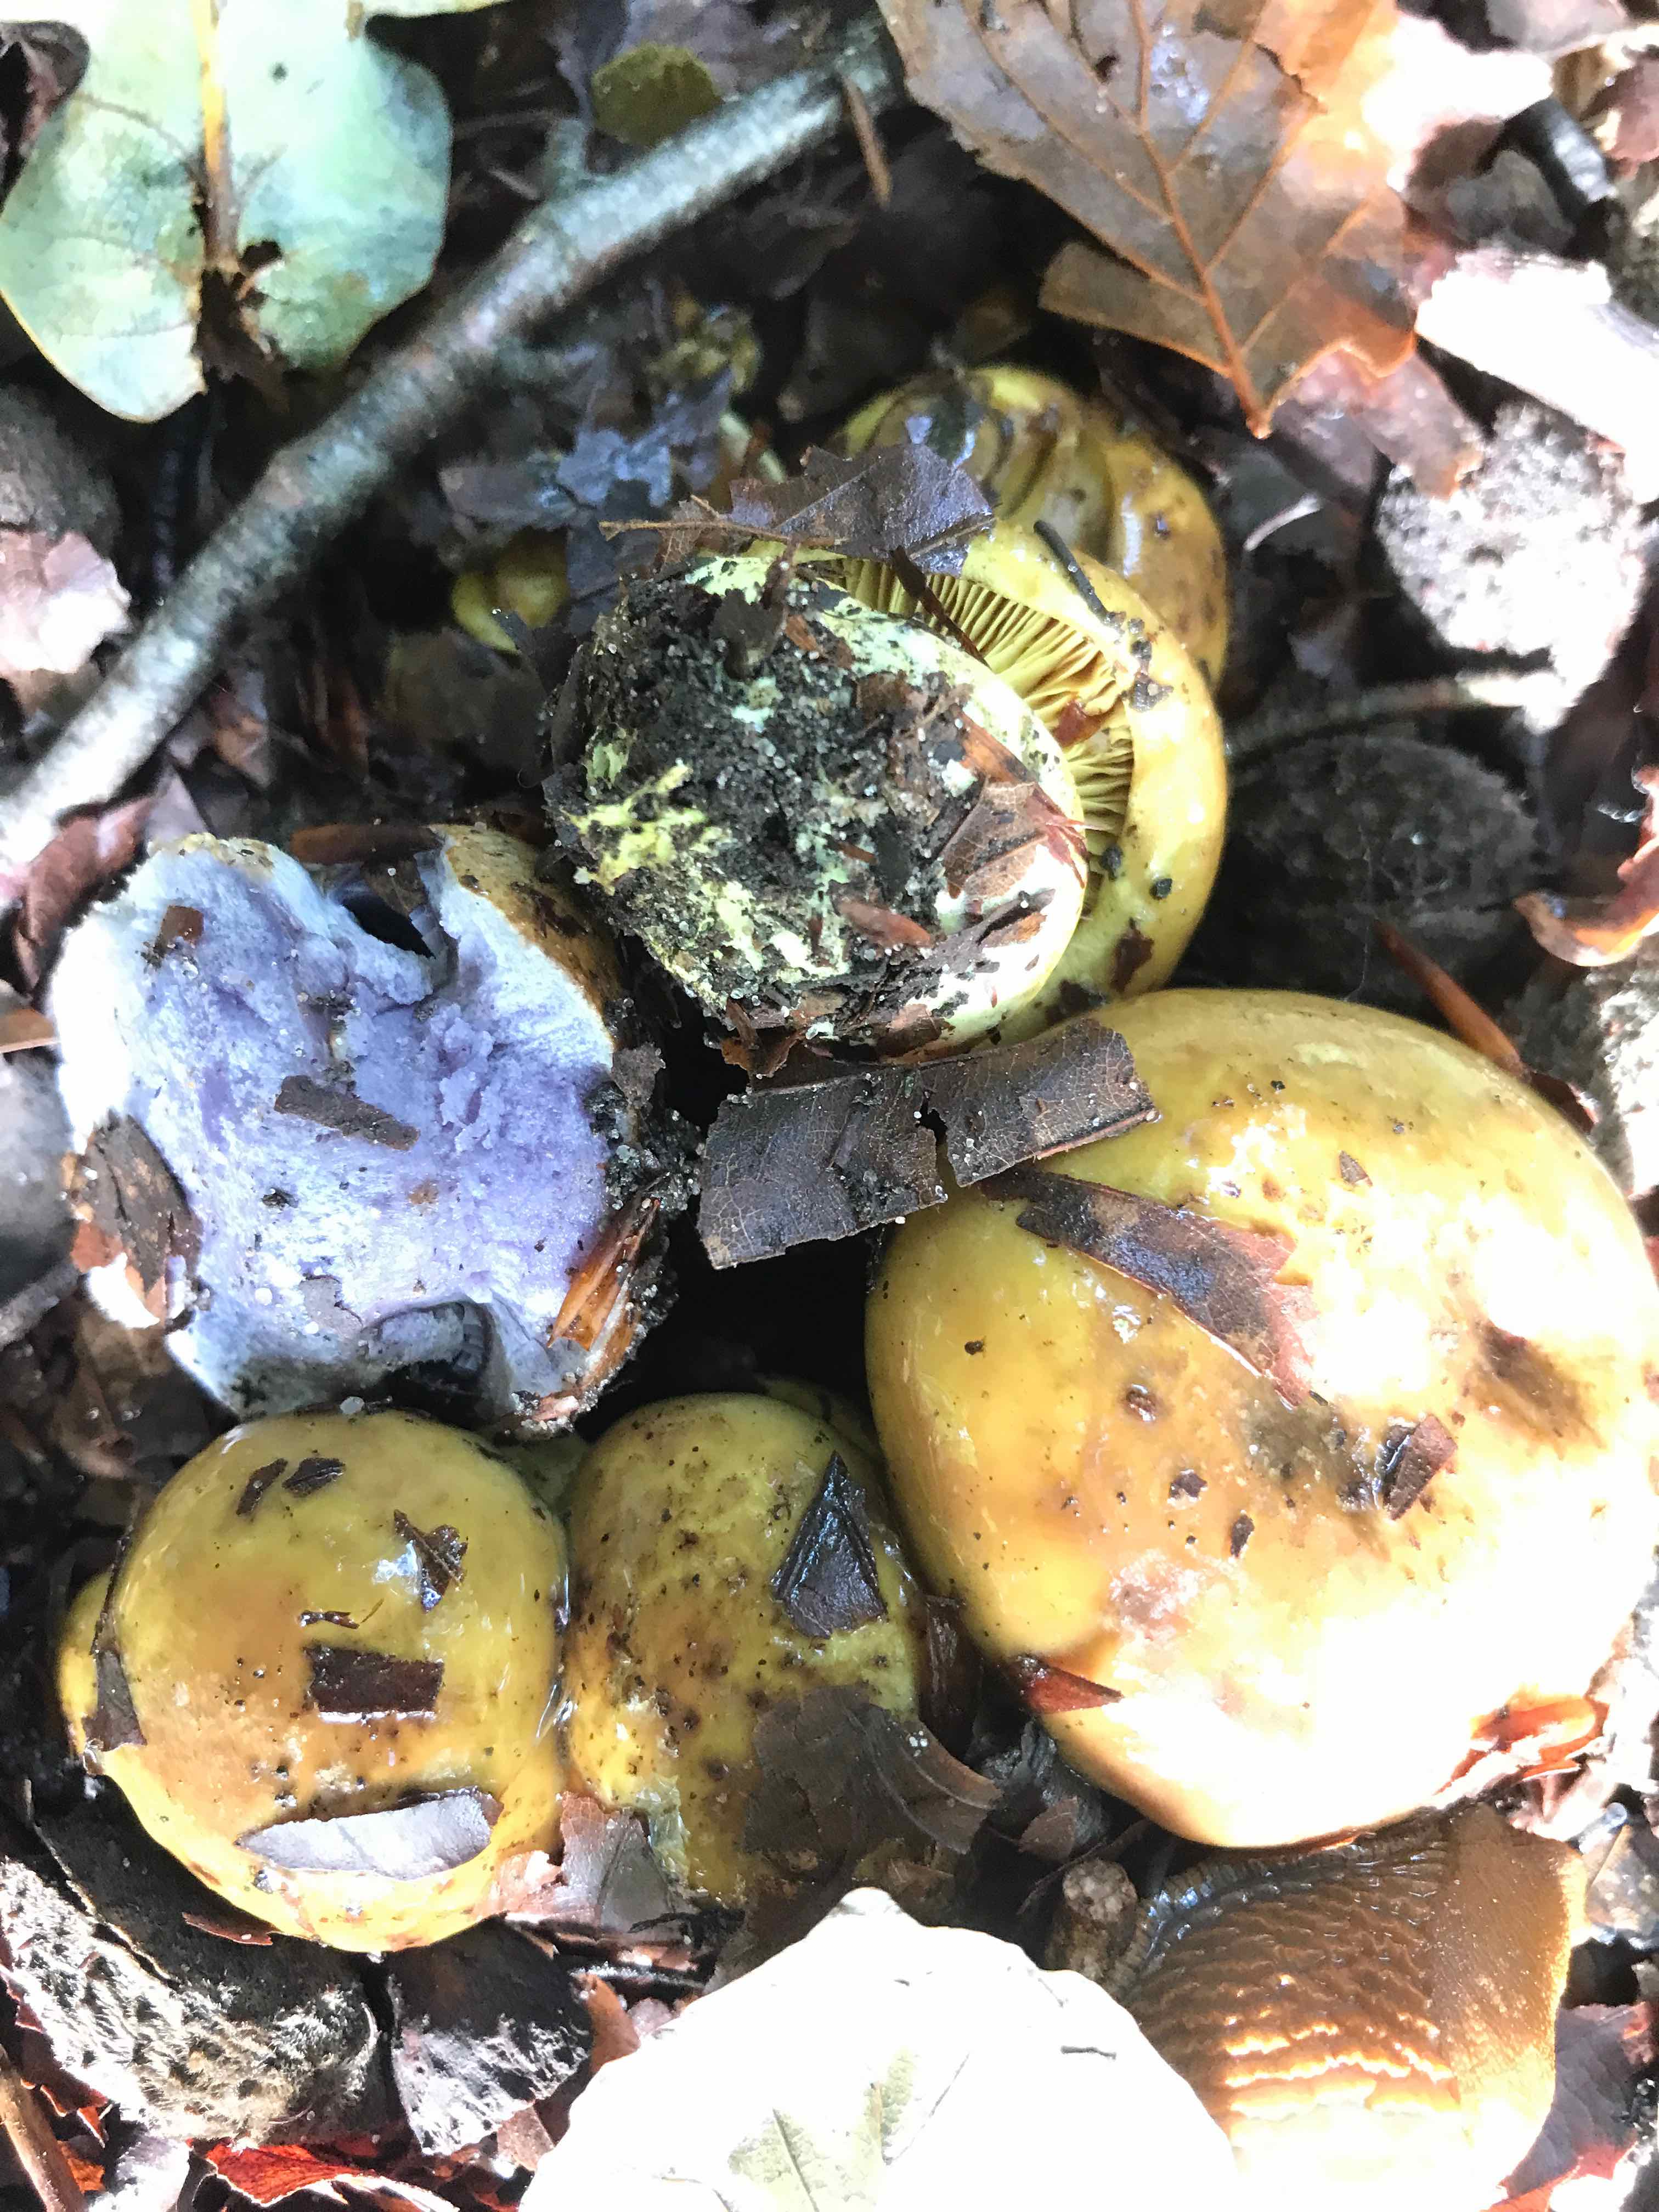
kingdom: Fungi
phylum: Basidiomycota
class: Agaricomycetes
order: Agaricales
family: Cortinariaceae
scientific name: Cortinariaceae
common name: slørhatfamilien
